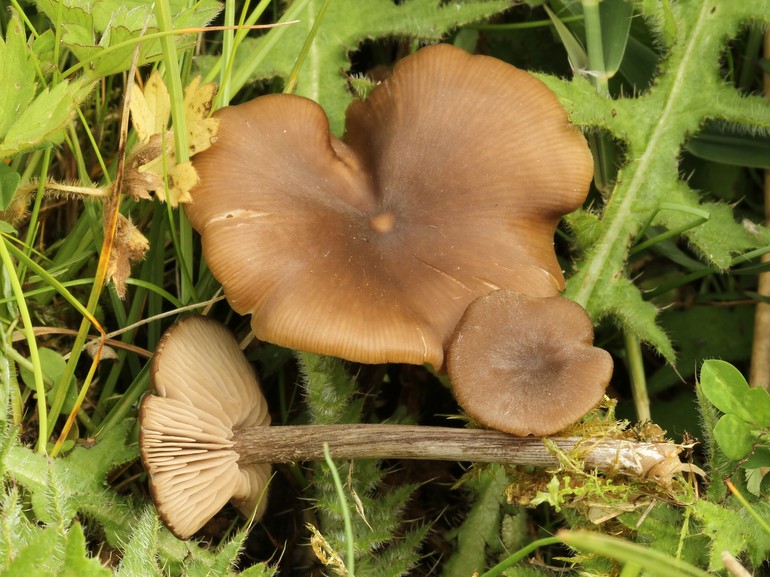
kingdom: Fungi
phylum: Basidiomycota
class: Agaricomycetes
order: Agaricales
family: Entolomataceae
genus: Entoloma
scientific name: Entoloma sericeum
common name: silkeglinsende rødblad
